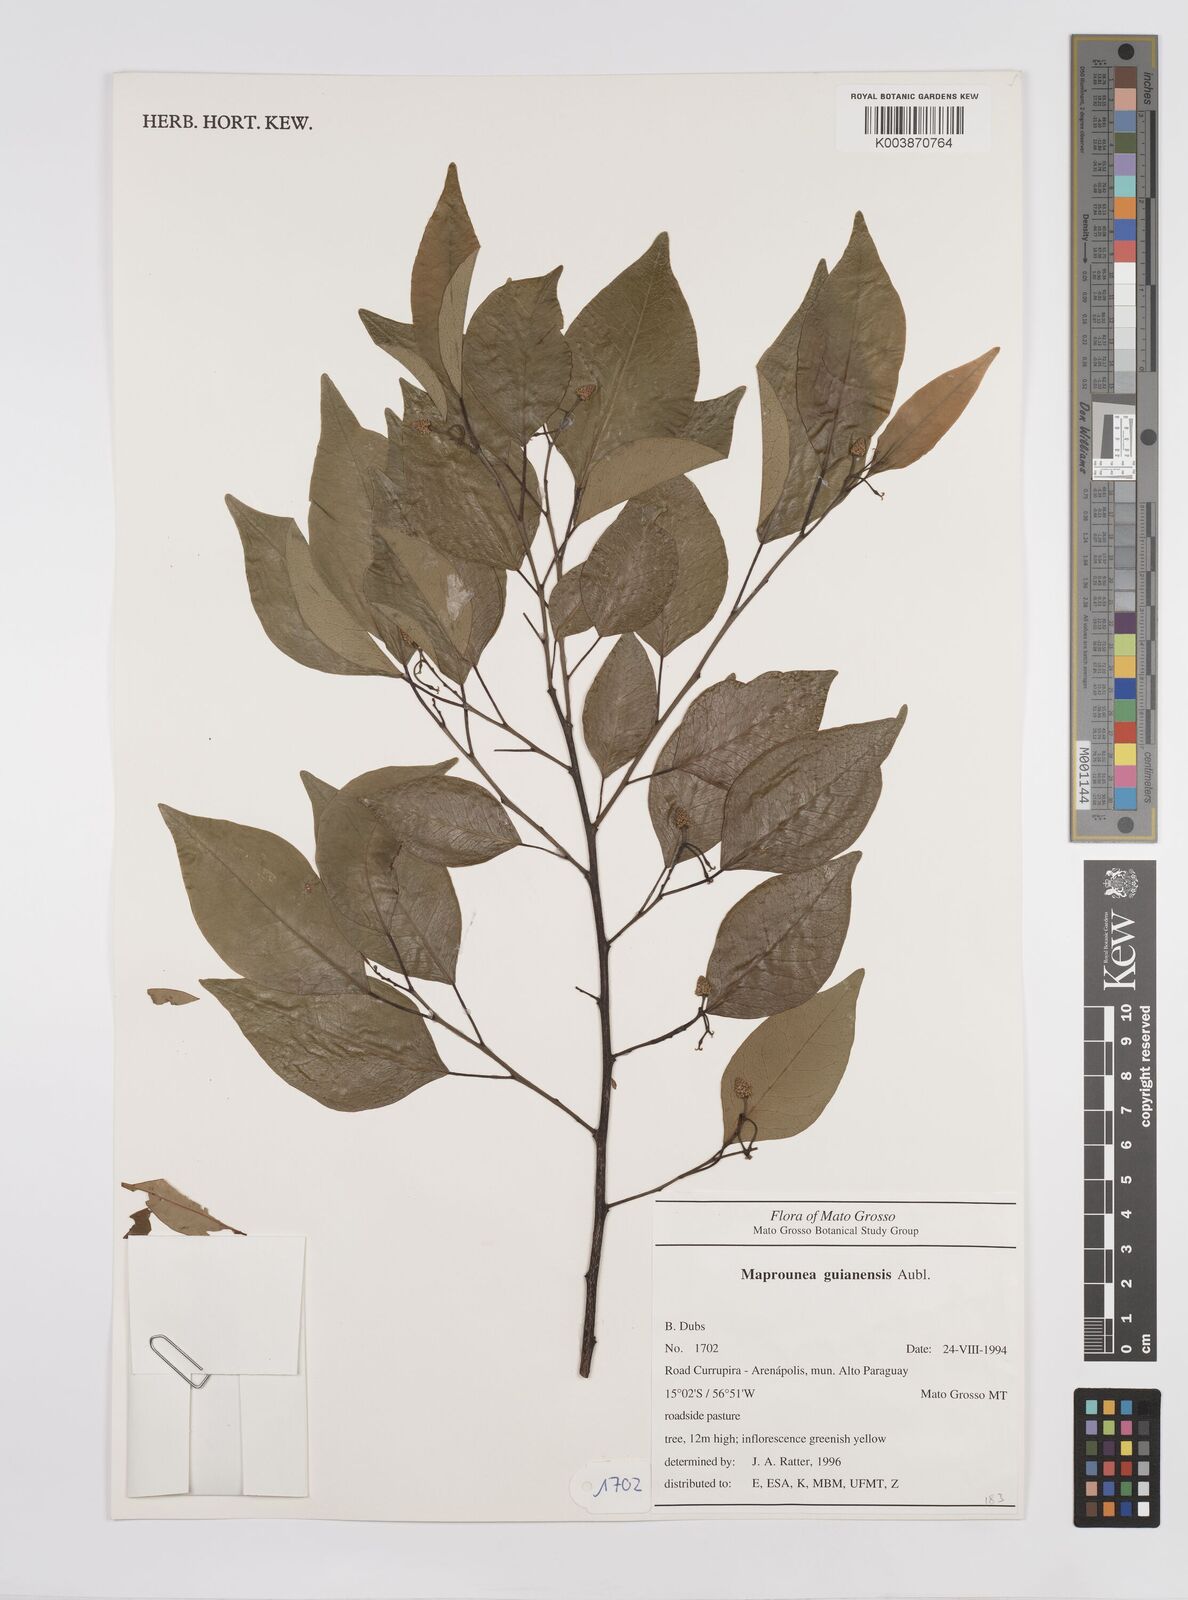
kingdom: Plantae
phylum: Tracheophyta
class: Magnoliopsida
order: Malpighiales
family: Euphorbiaceae
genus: Maprounea
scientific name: Maprounea guianensis
